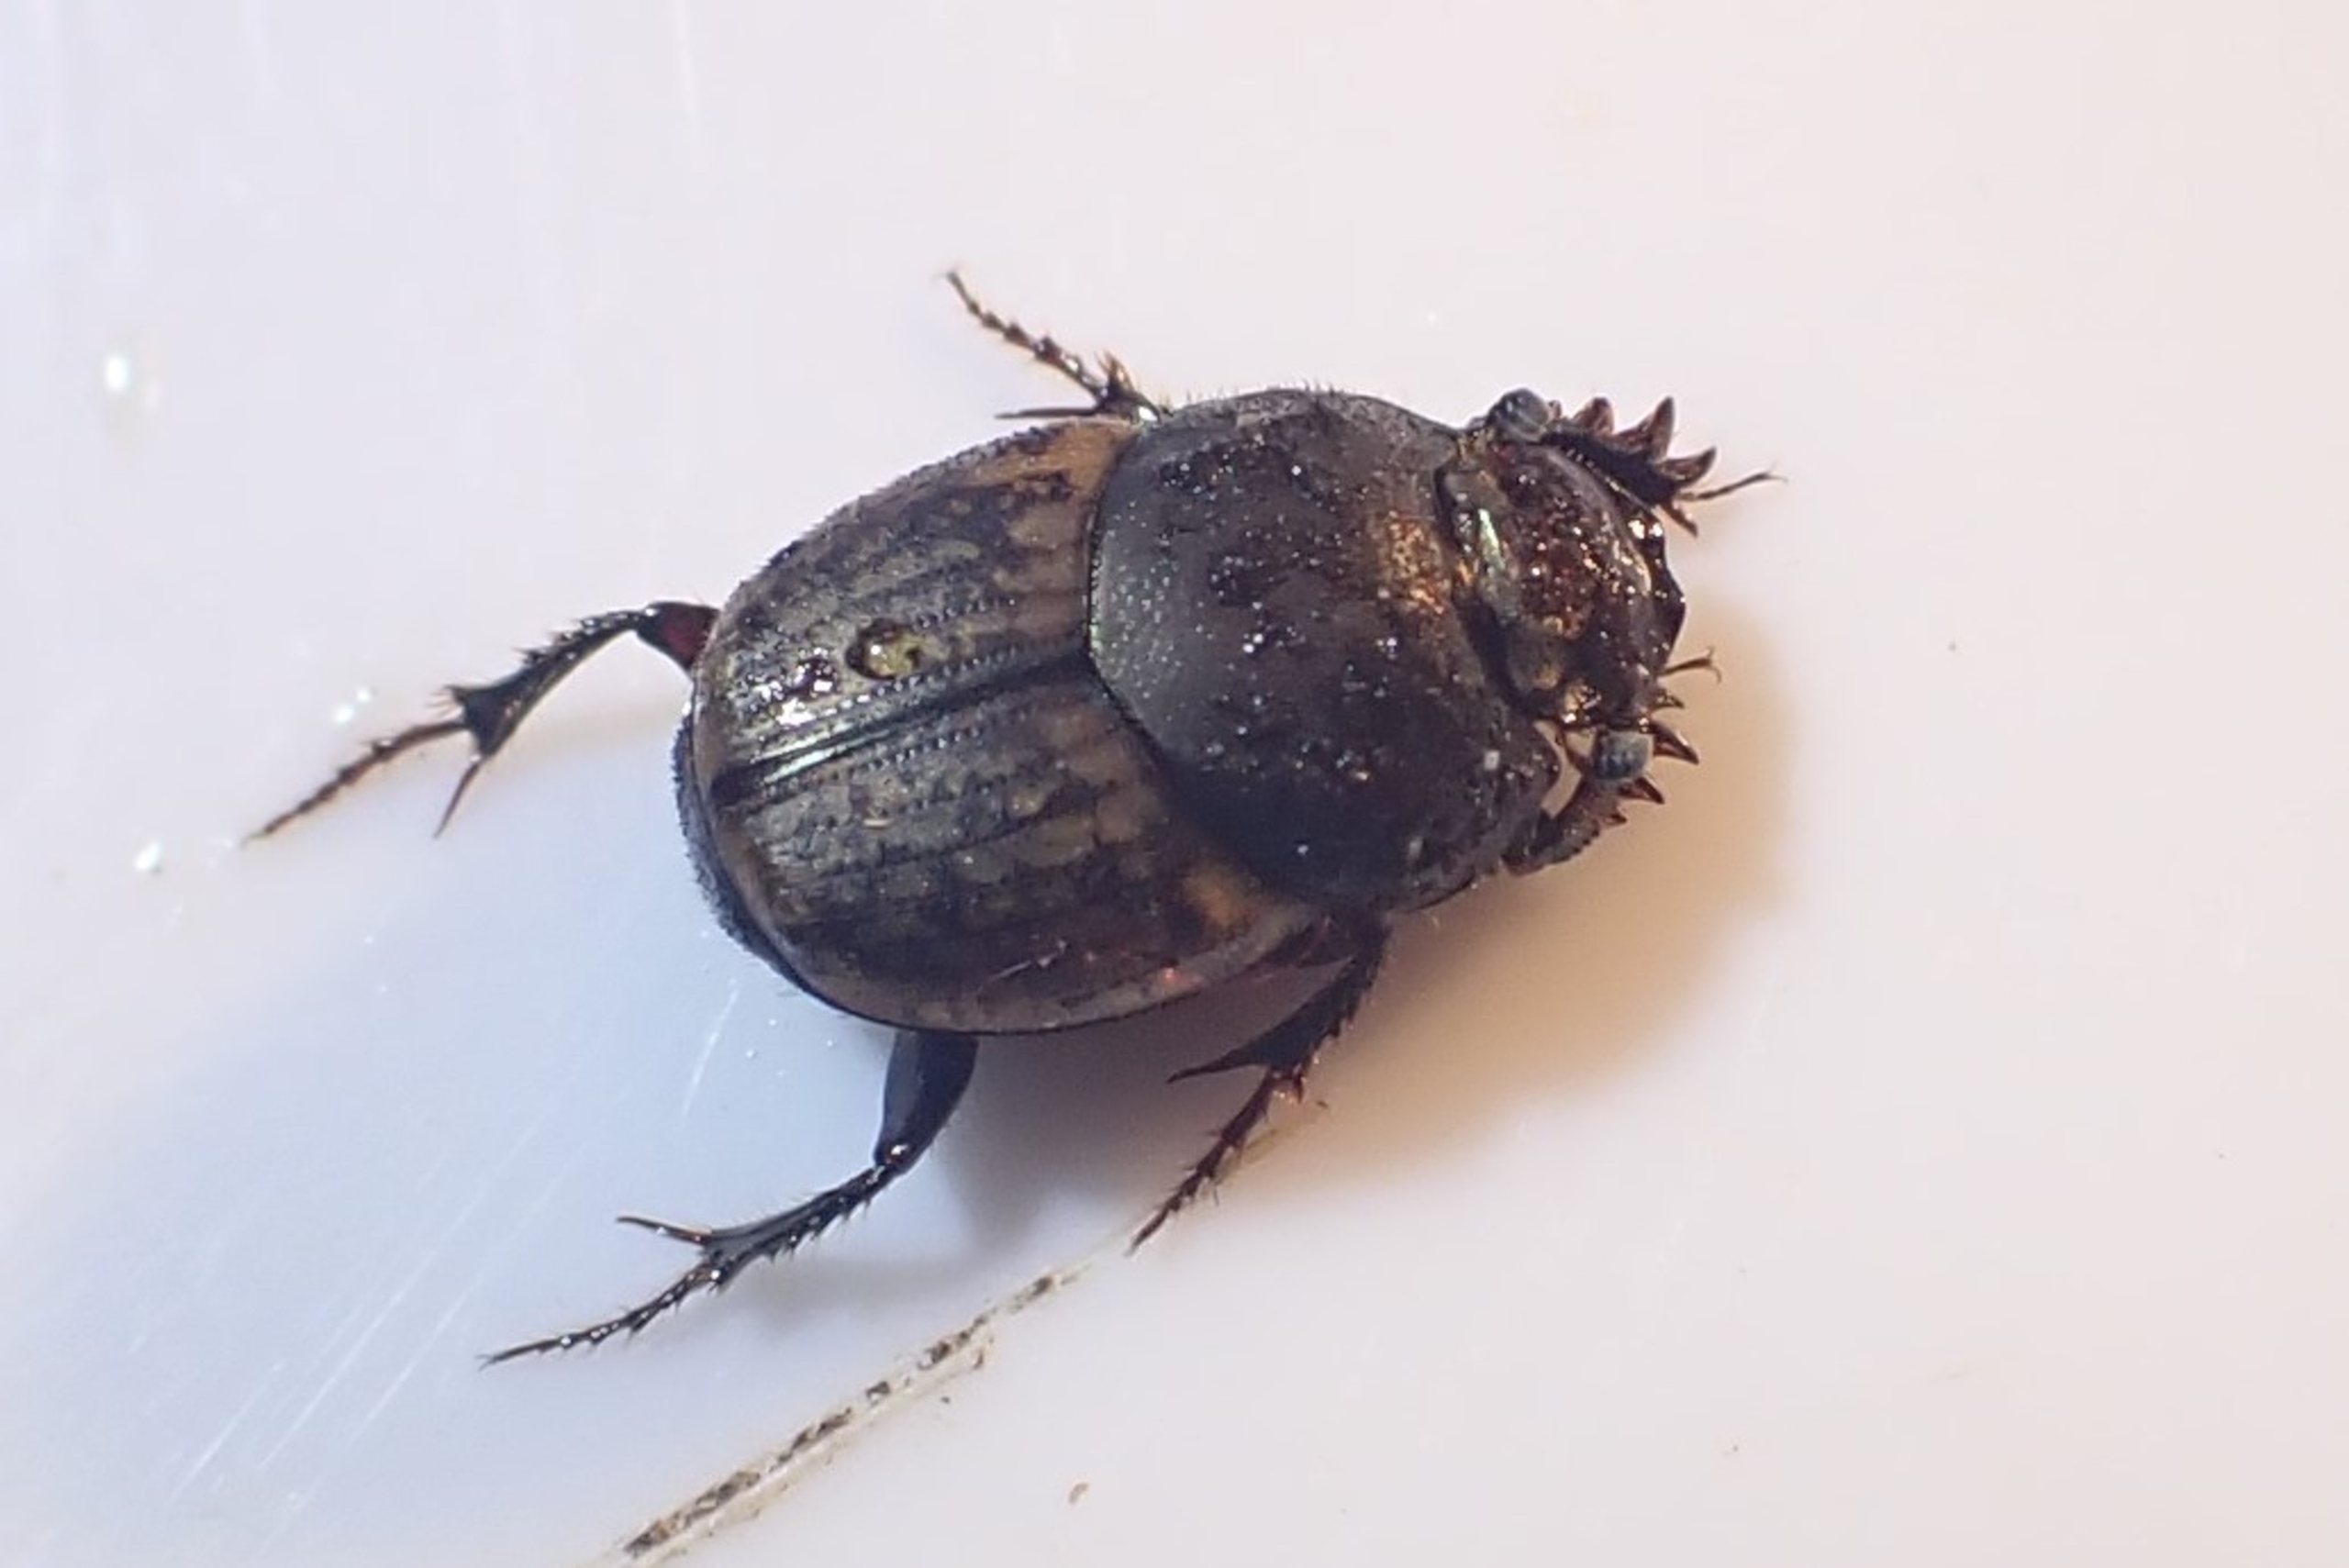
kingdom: Animalia
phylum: Arthropoda
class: Insecta
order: Coleoptera
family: Scarabaeidae
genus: Onthophagus
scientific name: Onthophagus similis
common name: Lille møggraver
